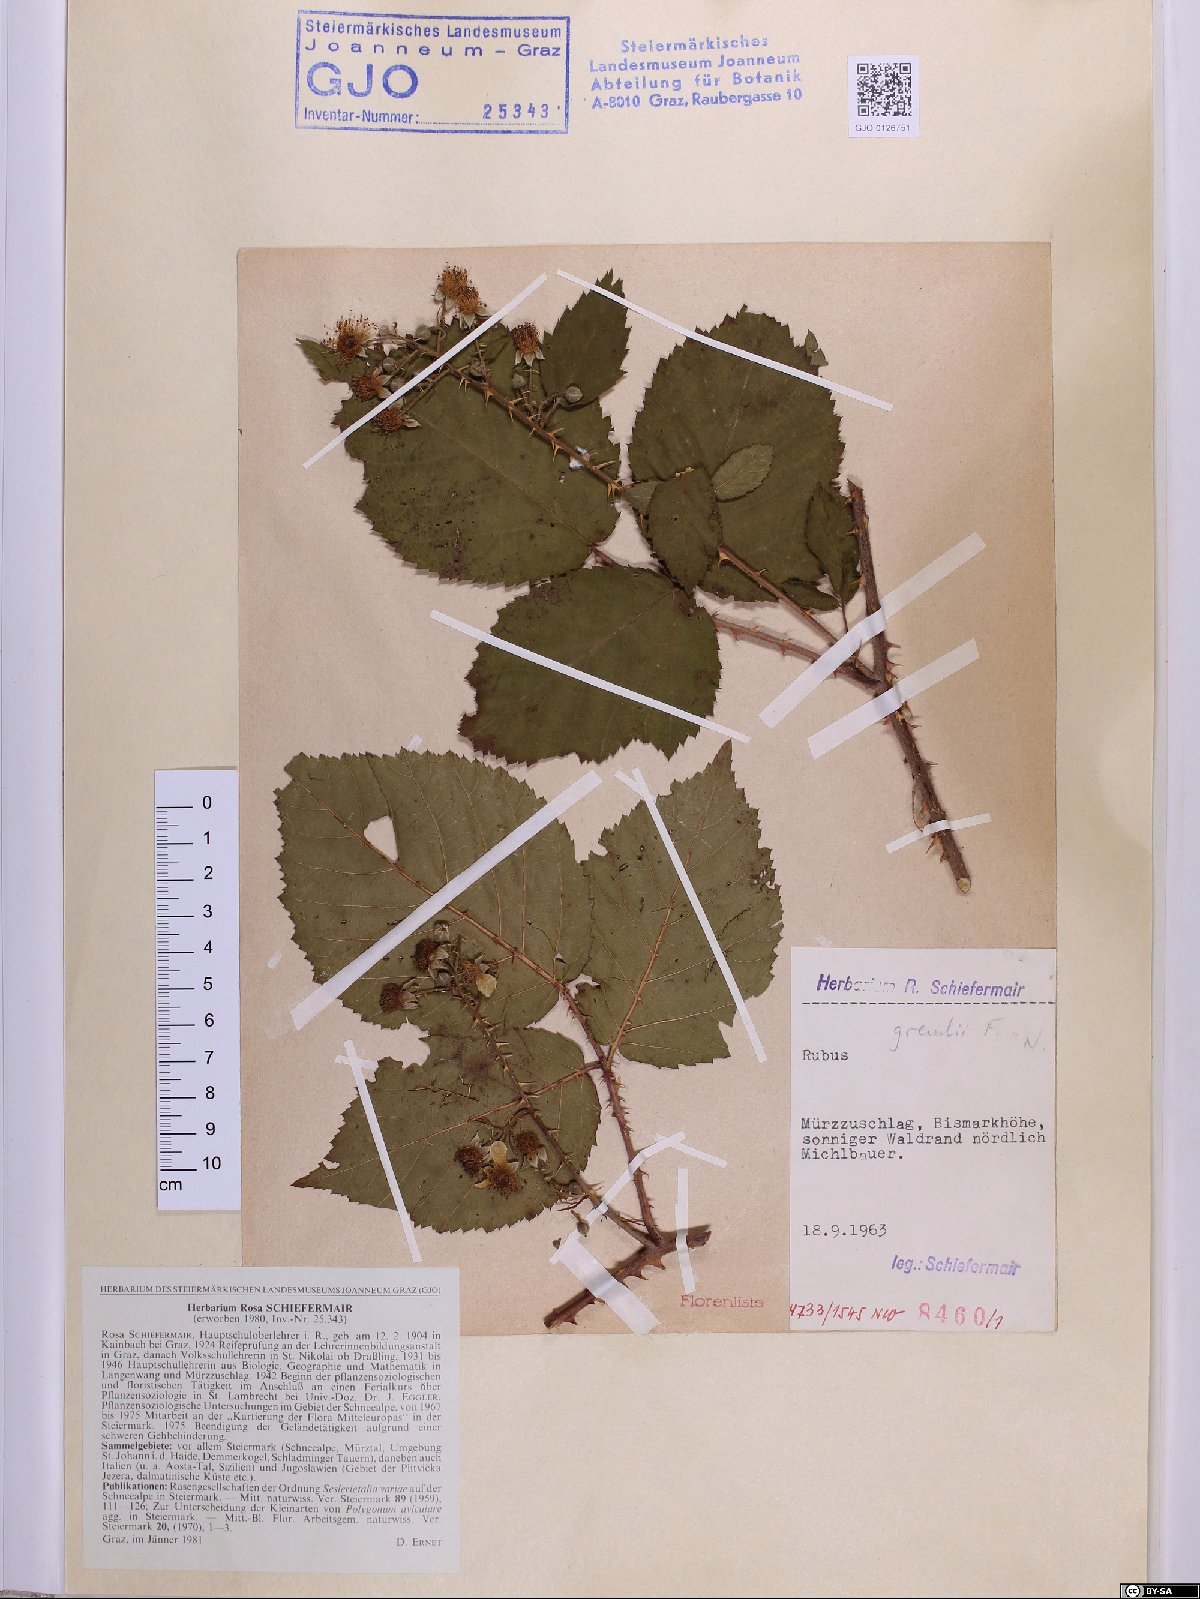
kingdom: Plantae
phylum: Tracheophyta
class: Magnoliopsida
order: Rosales
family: Rosaceae
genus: Rubus
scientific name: Rubus gremlii
